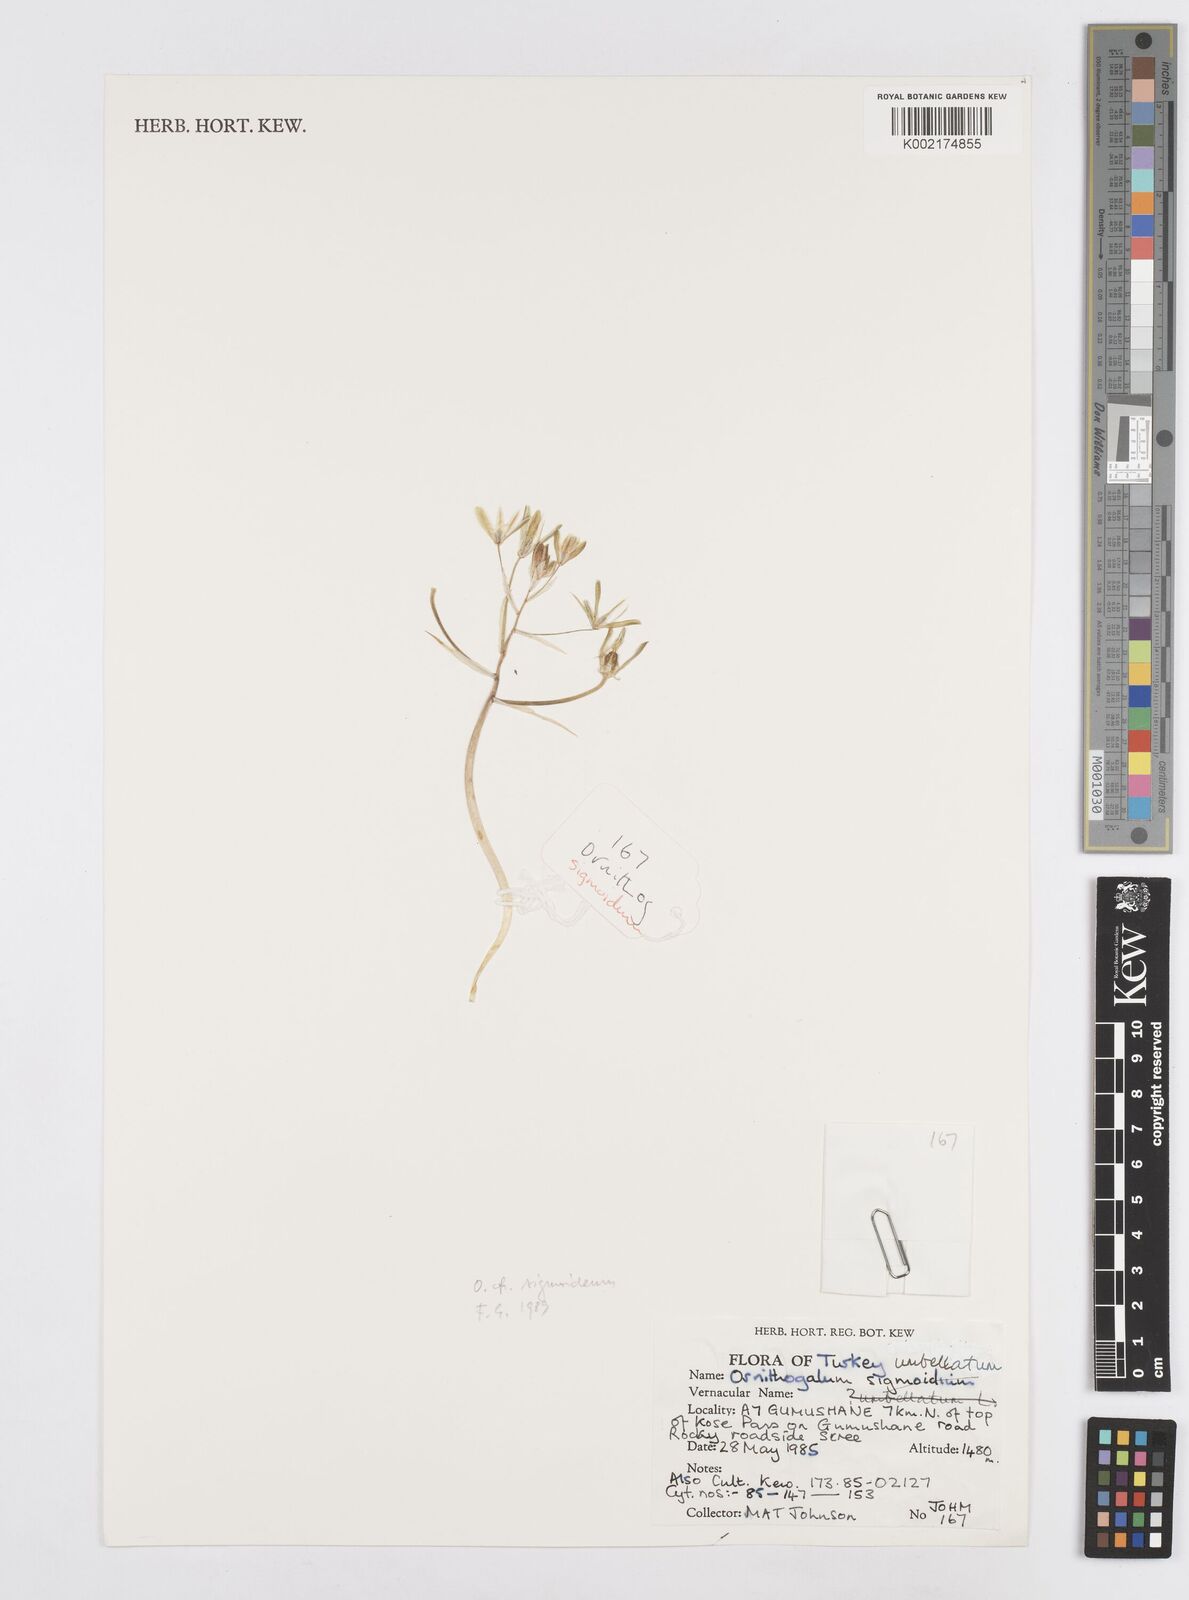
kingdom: Plantae
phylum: Tracheophyta
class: Liliopsida
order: Asparagales
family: Asparagaceae
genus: Ornithogalum
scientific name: Ornithogalum umbellatum
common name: Garden star-of-bethlehem
